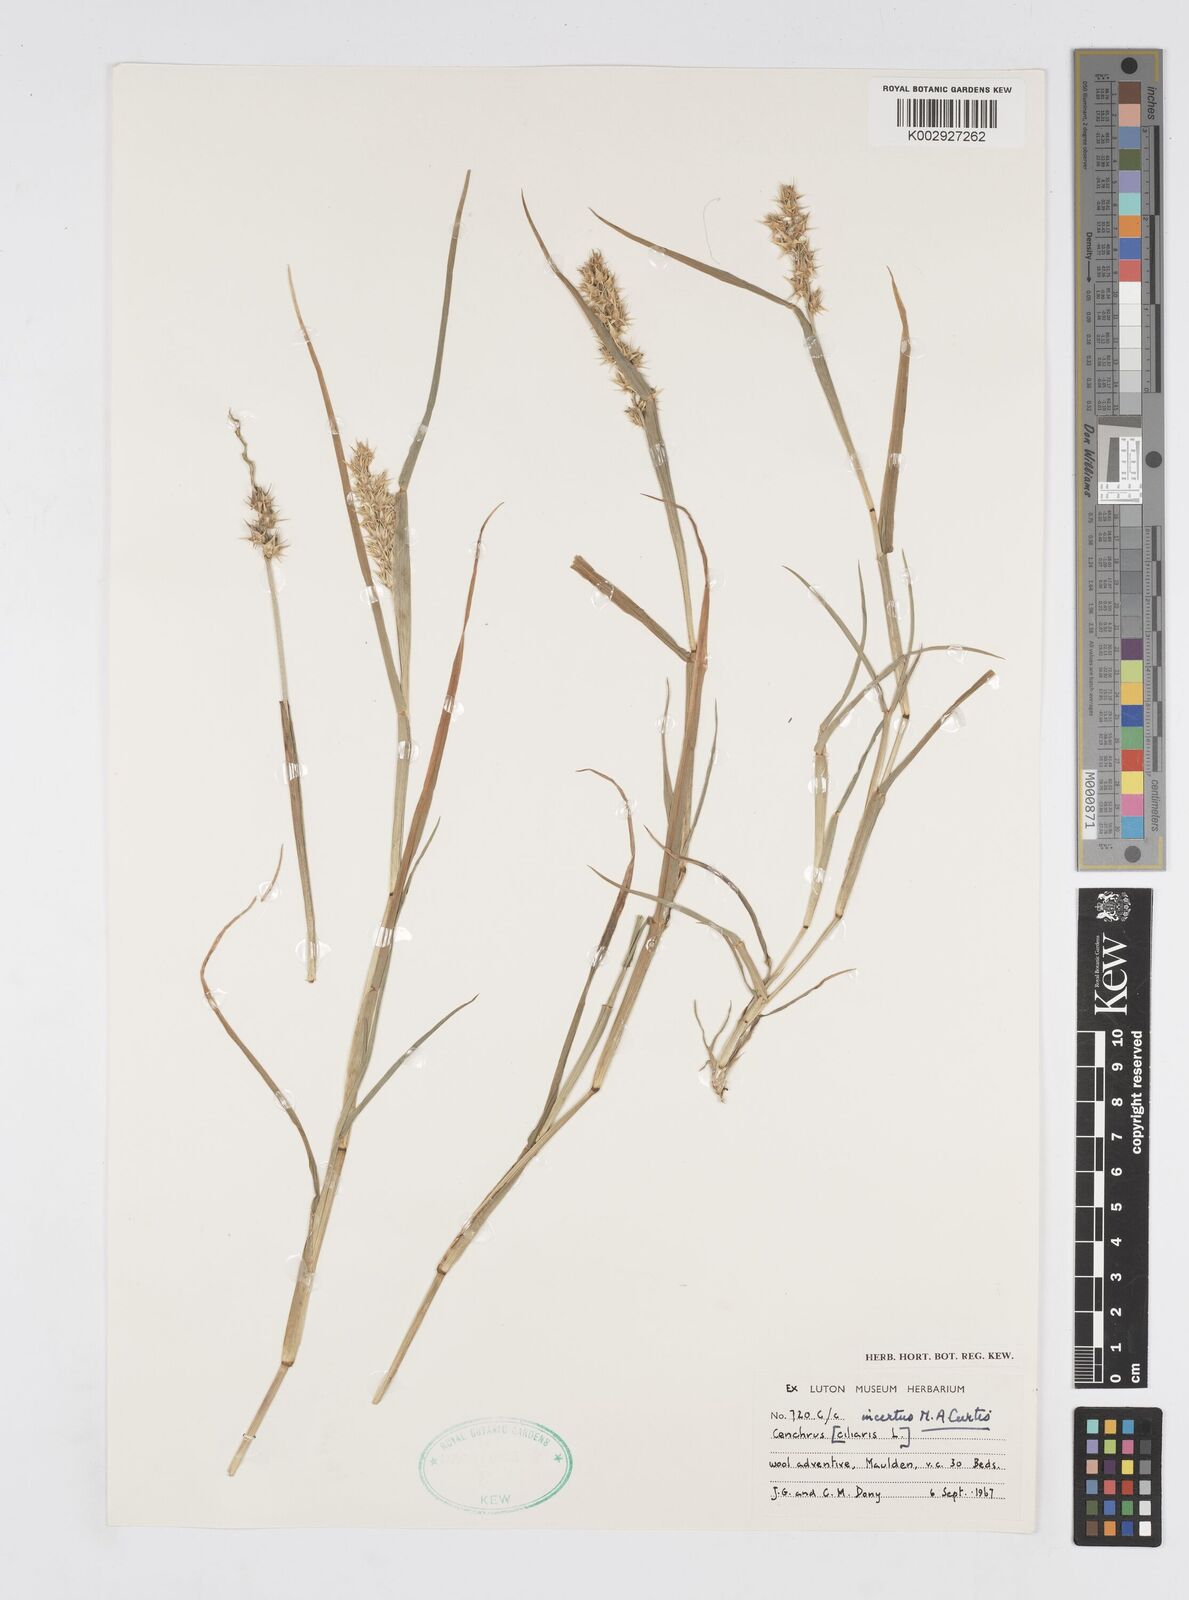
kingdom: Plantae
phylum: Tracheophyta
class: Liliopsida
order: Poales
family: Poaceae
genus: Cenchrus
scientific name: Cenchrus spinifex
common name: Coast sandbur
